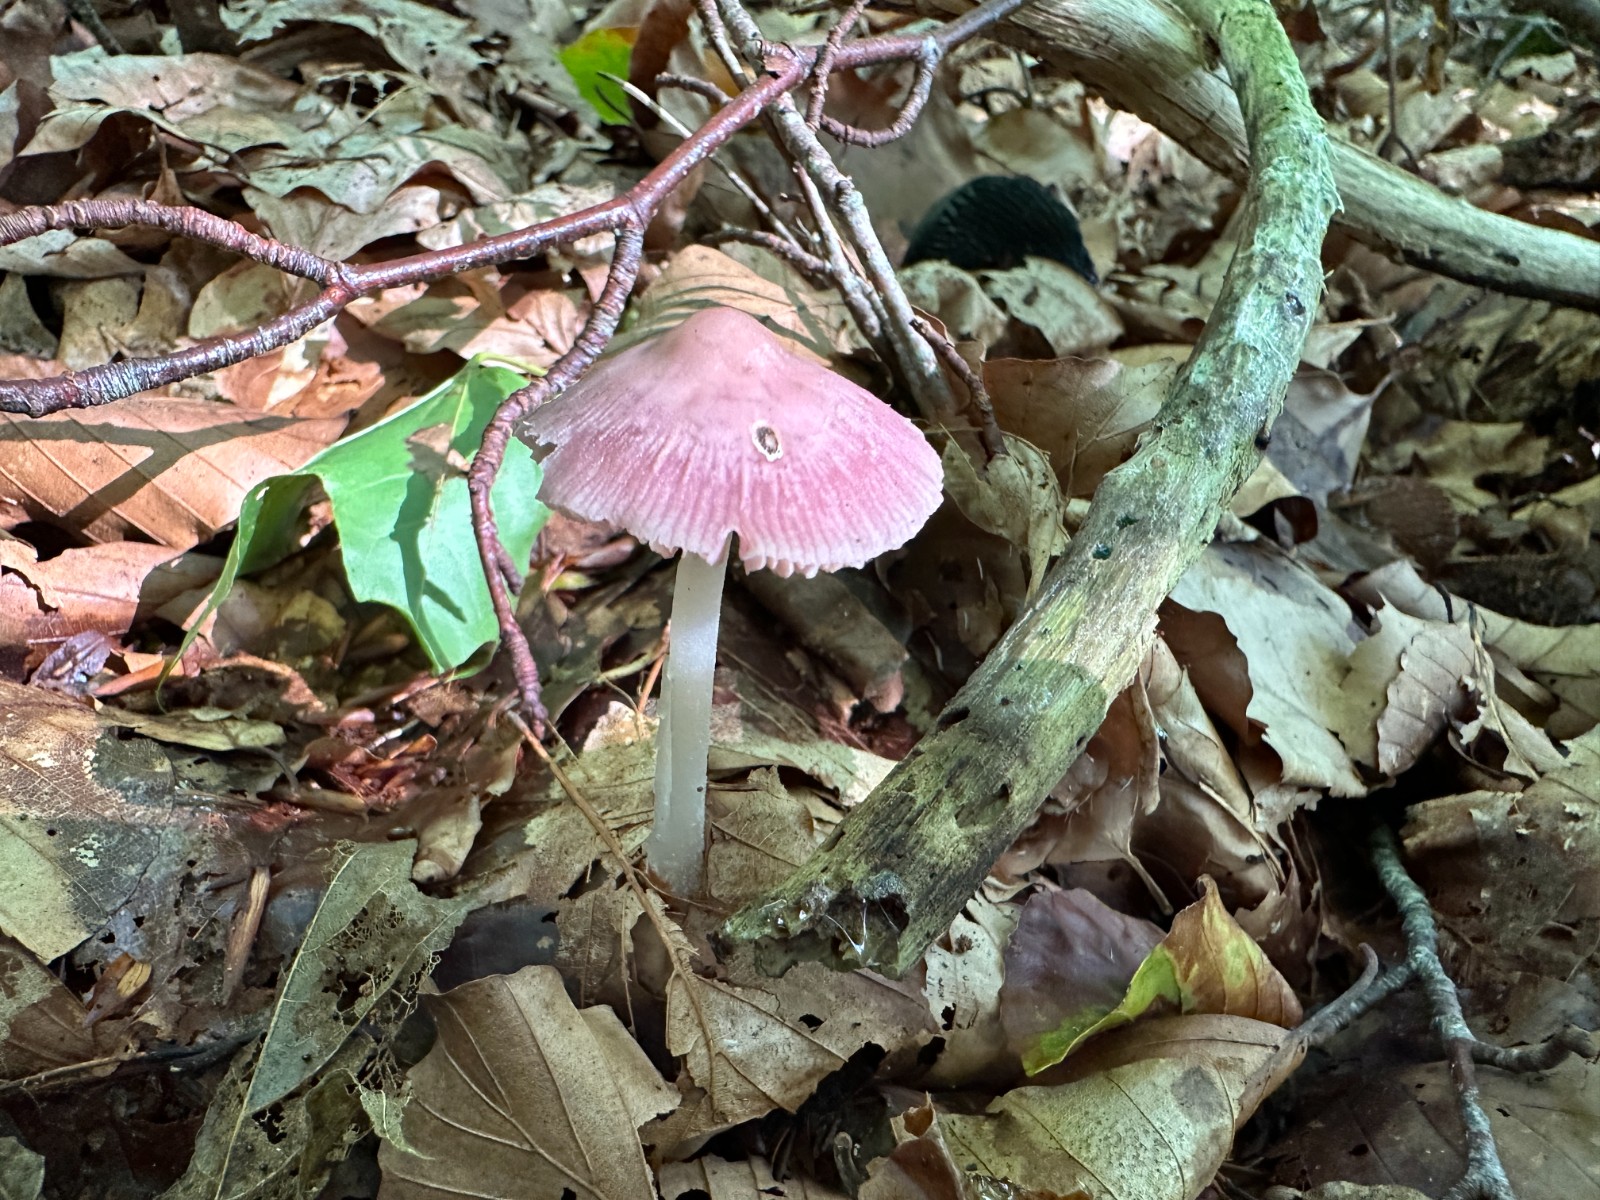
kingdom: Fungi
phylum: Basidiomycota
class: Agaricomycetes
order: Agaricales
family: Mycenaceae
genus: Mycena
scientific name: Mycena rosea
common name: rosa huesvamp
